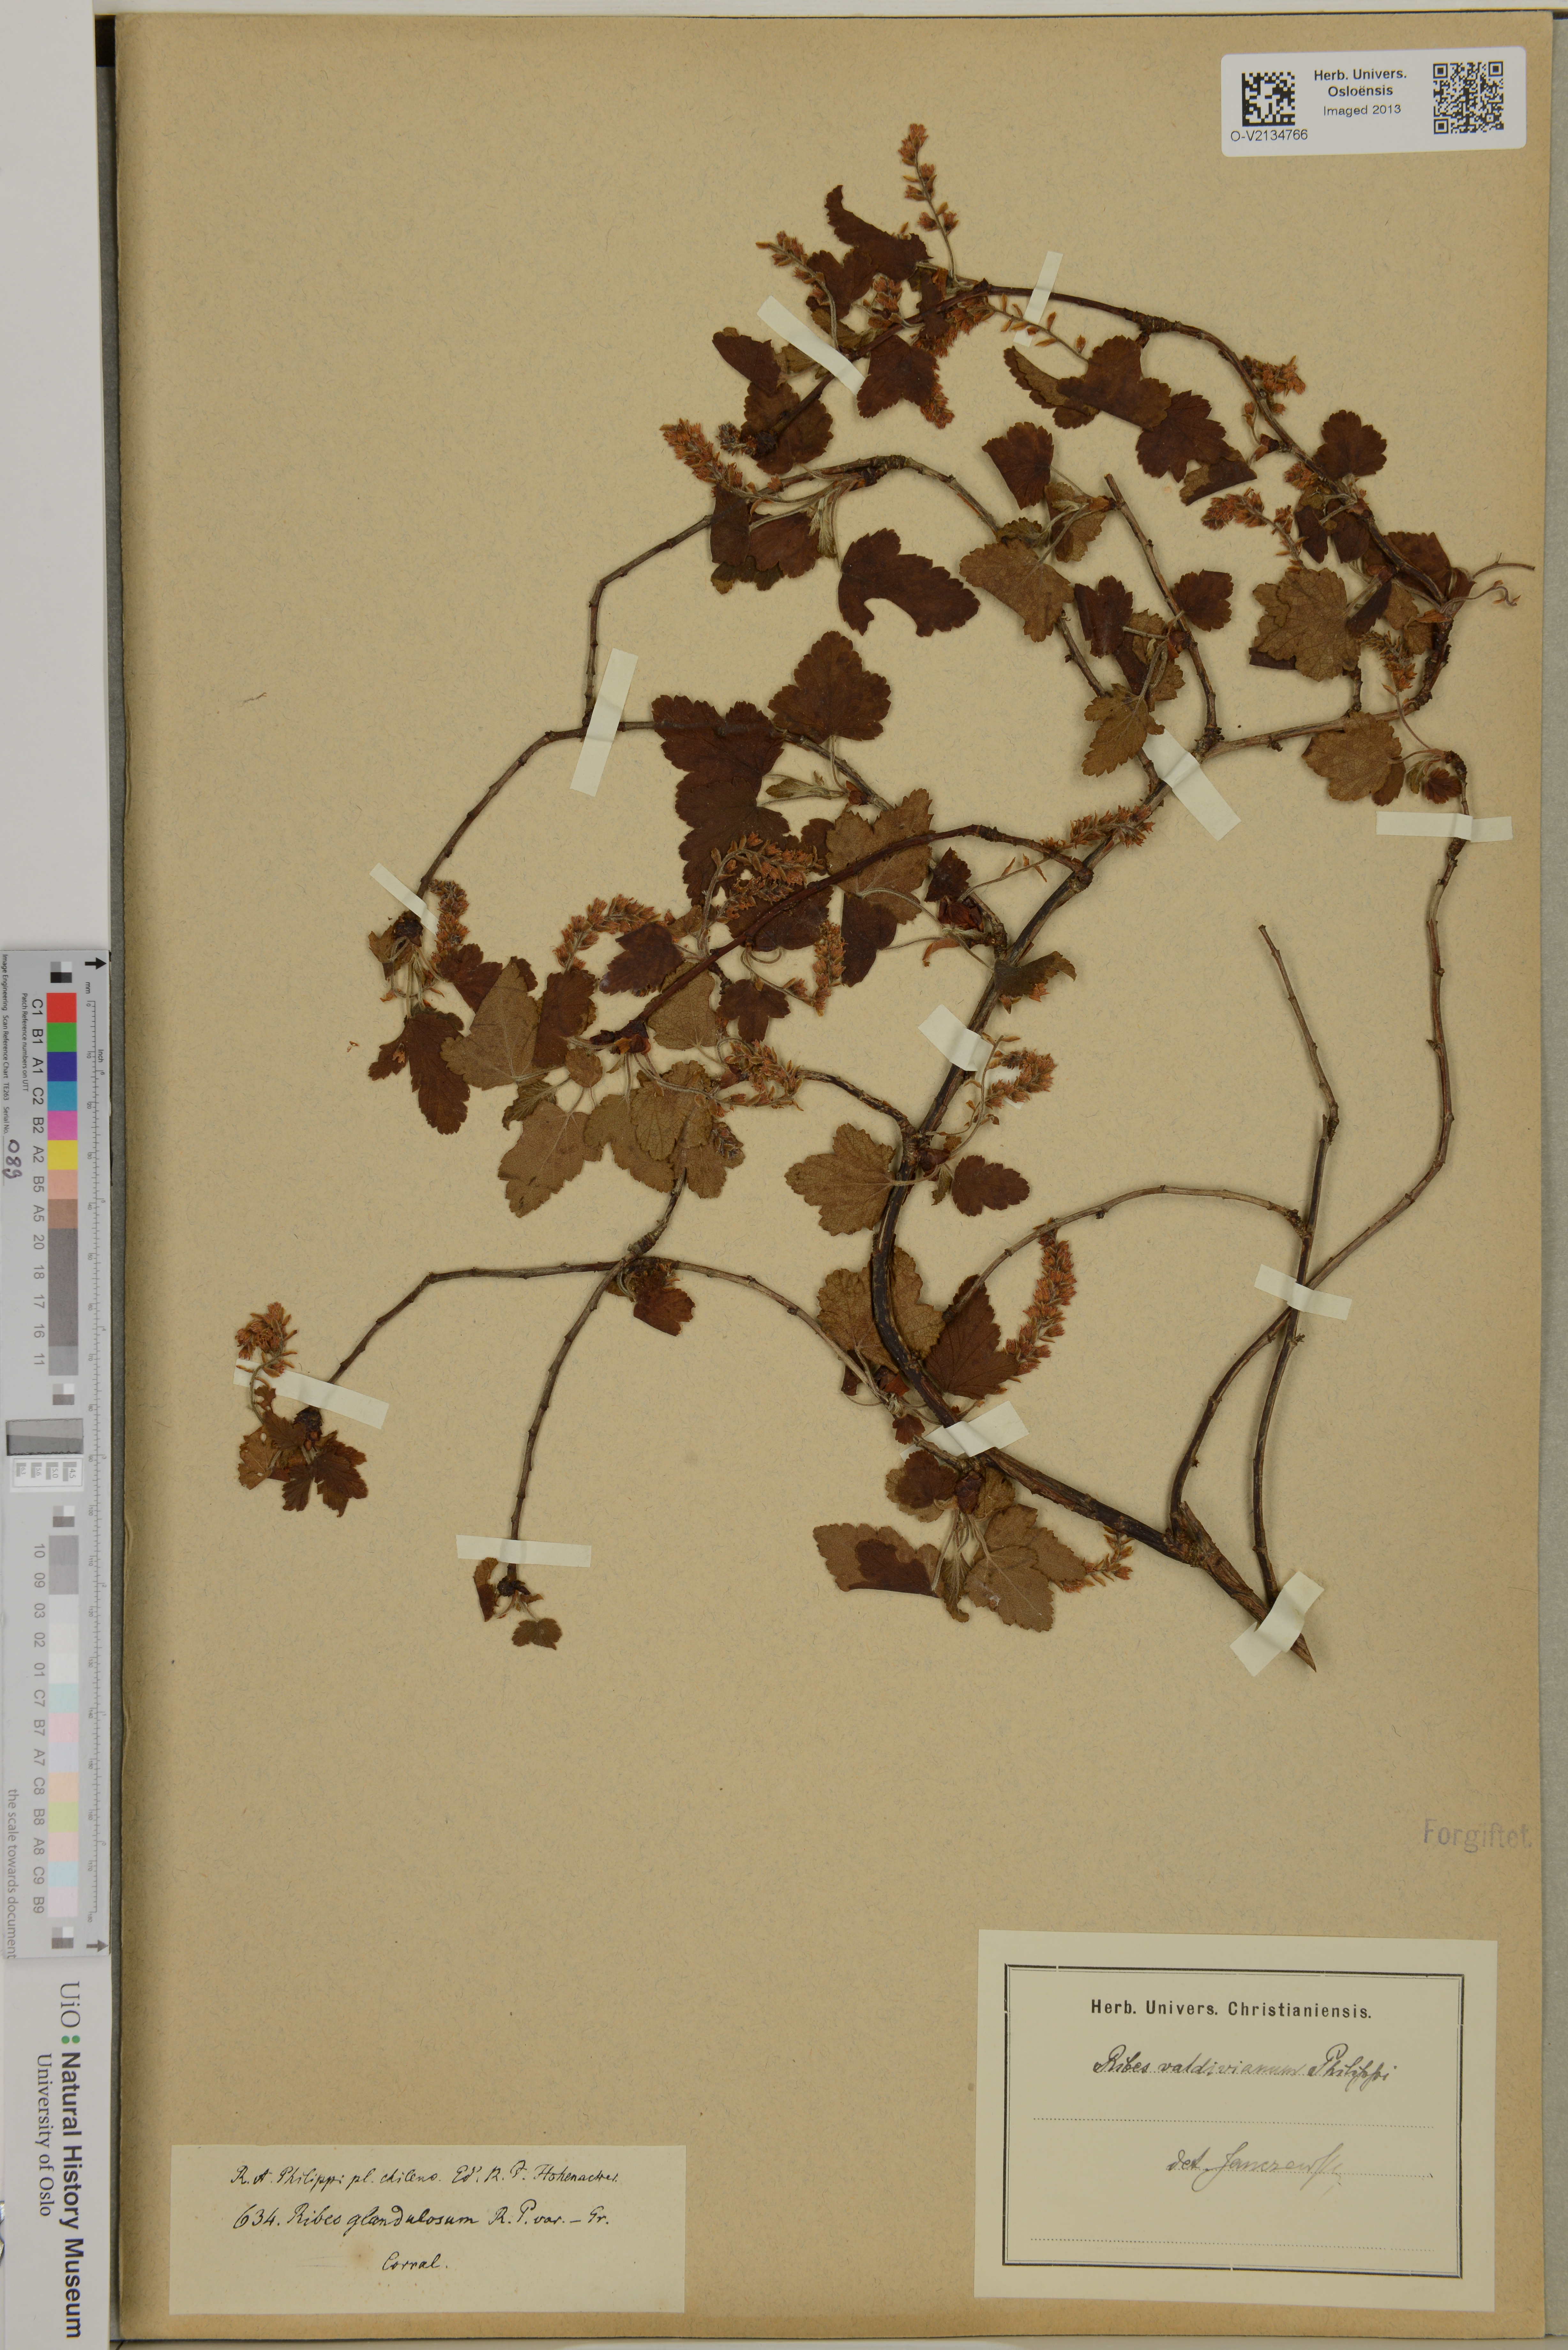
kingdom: Plantae
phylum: Tracheophyta
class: Magnoliopsida
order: Saxifragales
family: Grossulariaceae
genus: Ribes
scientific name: Ribes valdivianum
